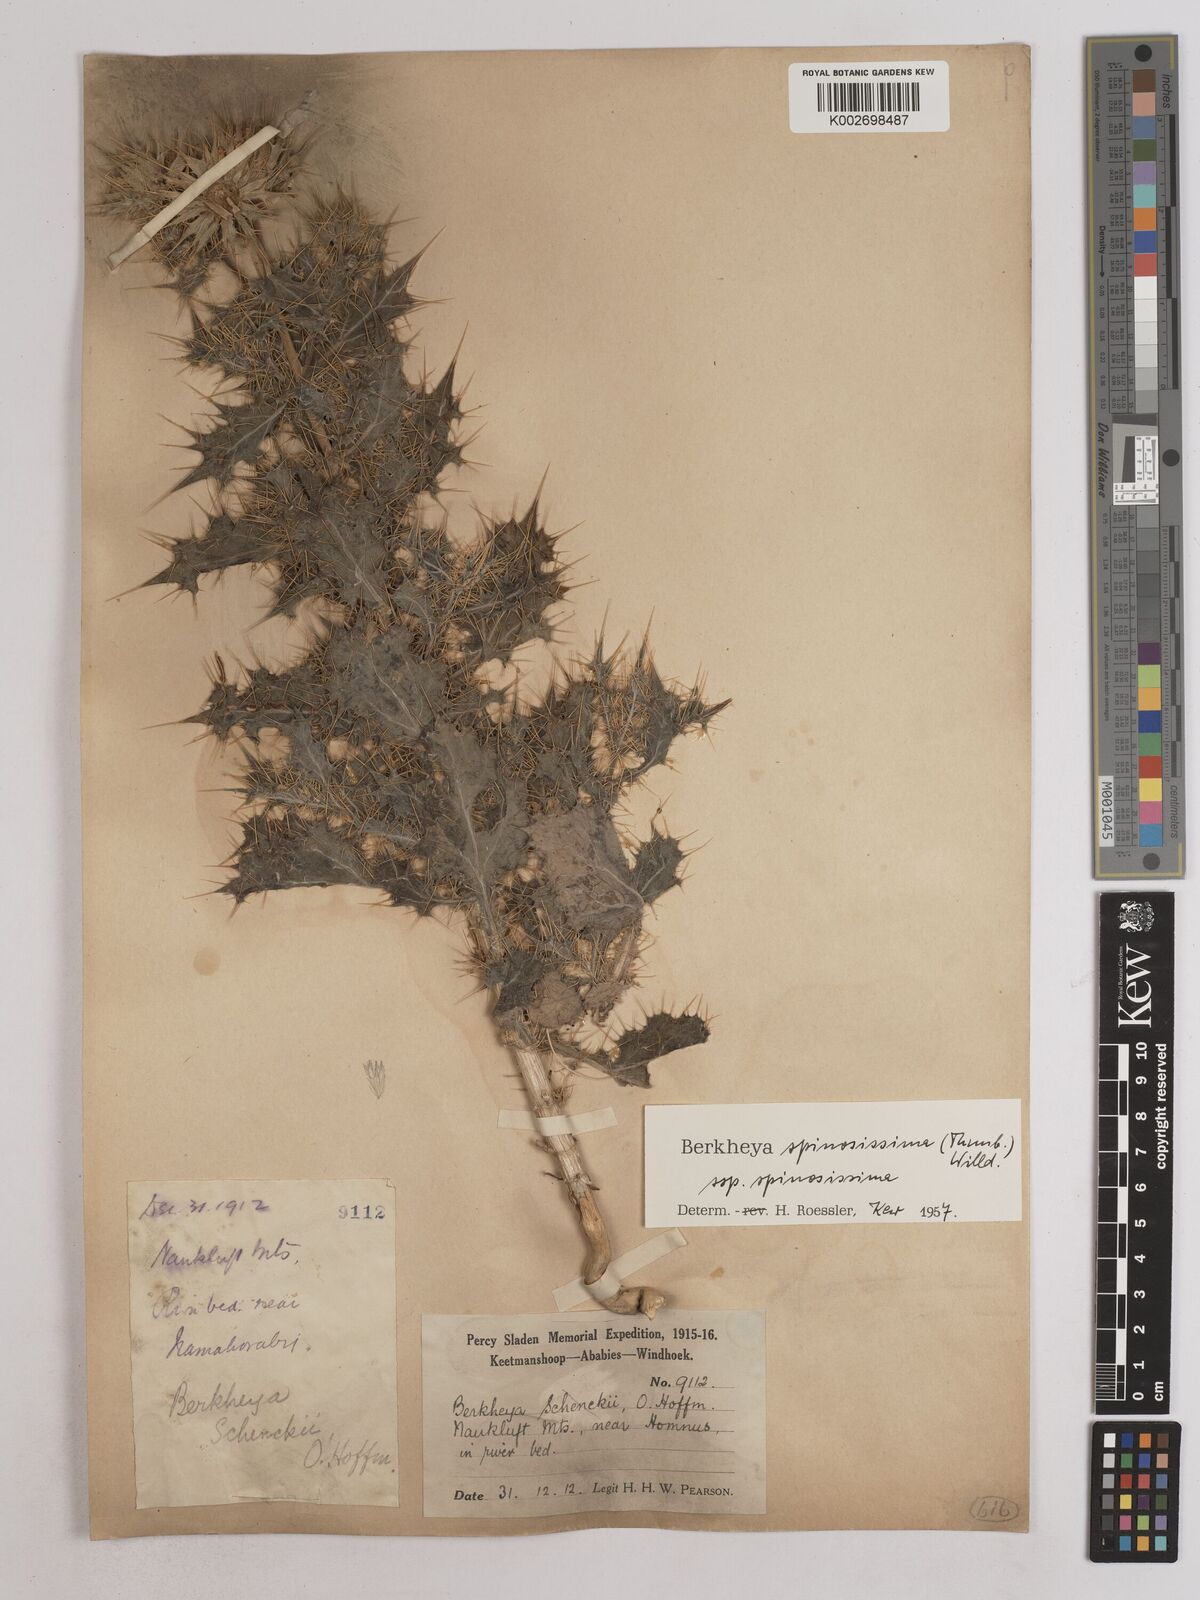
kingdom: Plantae
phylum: Tracheophyta
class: Magnoliopsida
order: Asterales
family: Asteraceae
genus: Berkheya
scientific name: Berkheya spinosissima
